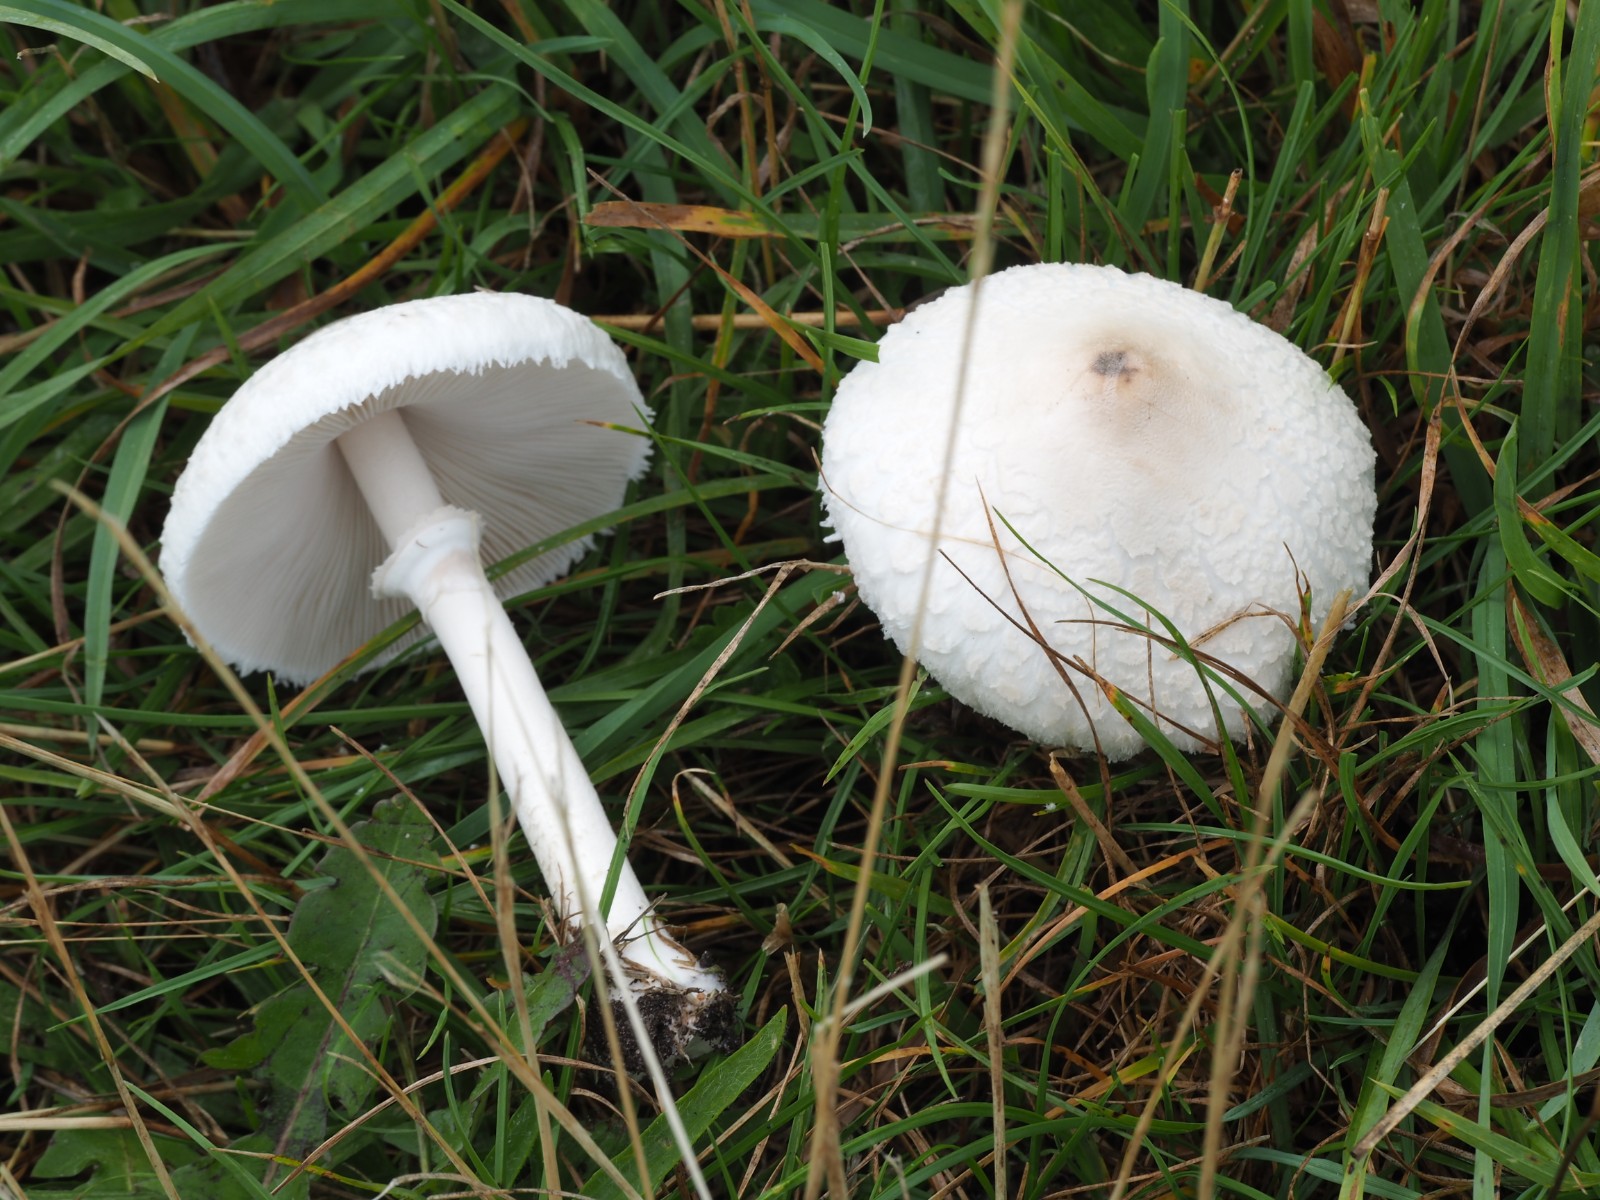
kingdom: Fungi
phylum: Basidiomycota
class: Agaricomycetes
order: Agaricales
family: Agaricaceae
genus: Macrolepiota
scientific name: Macrolepiota excoriata
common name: mark-kæmpeparasolhat
